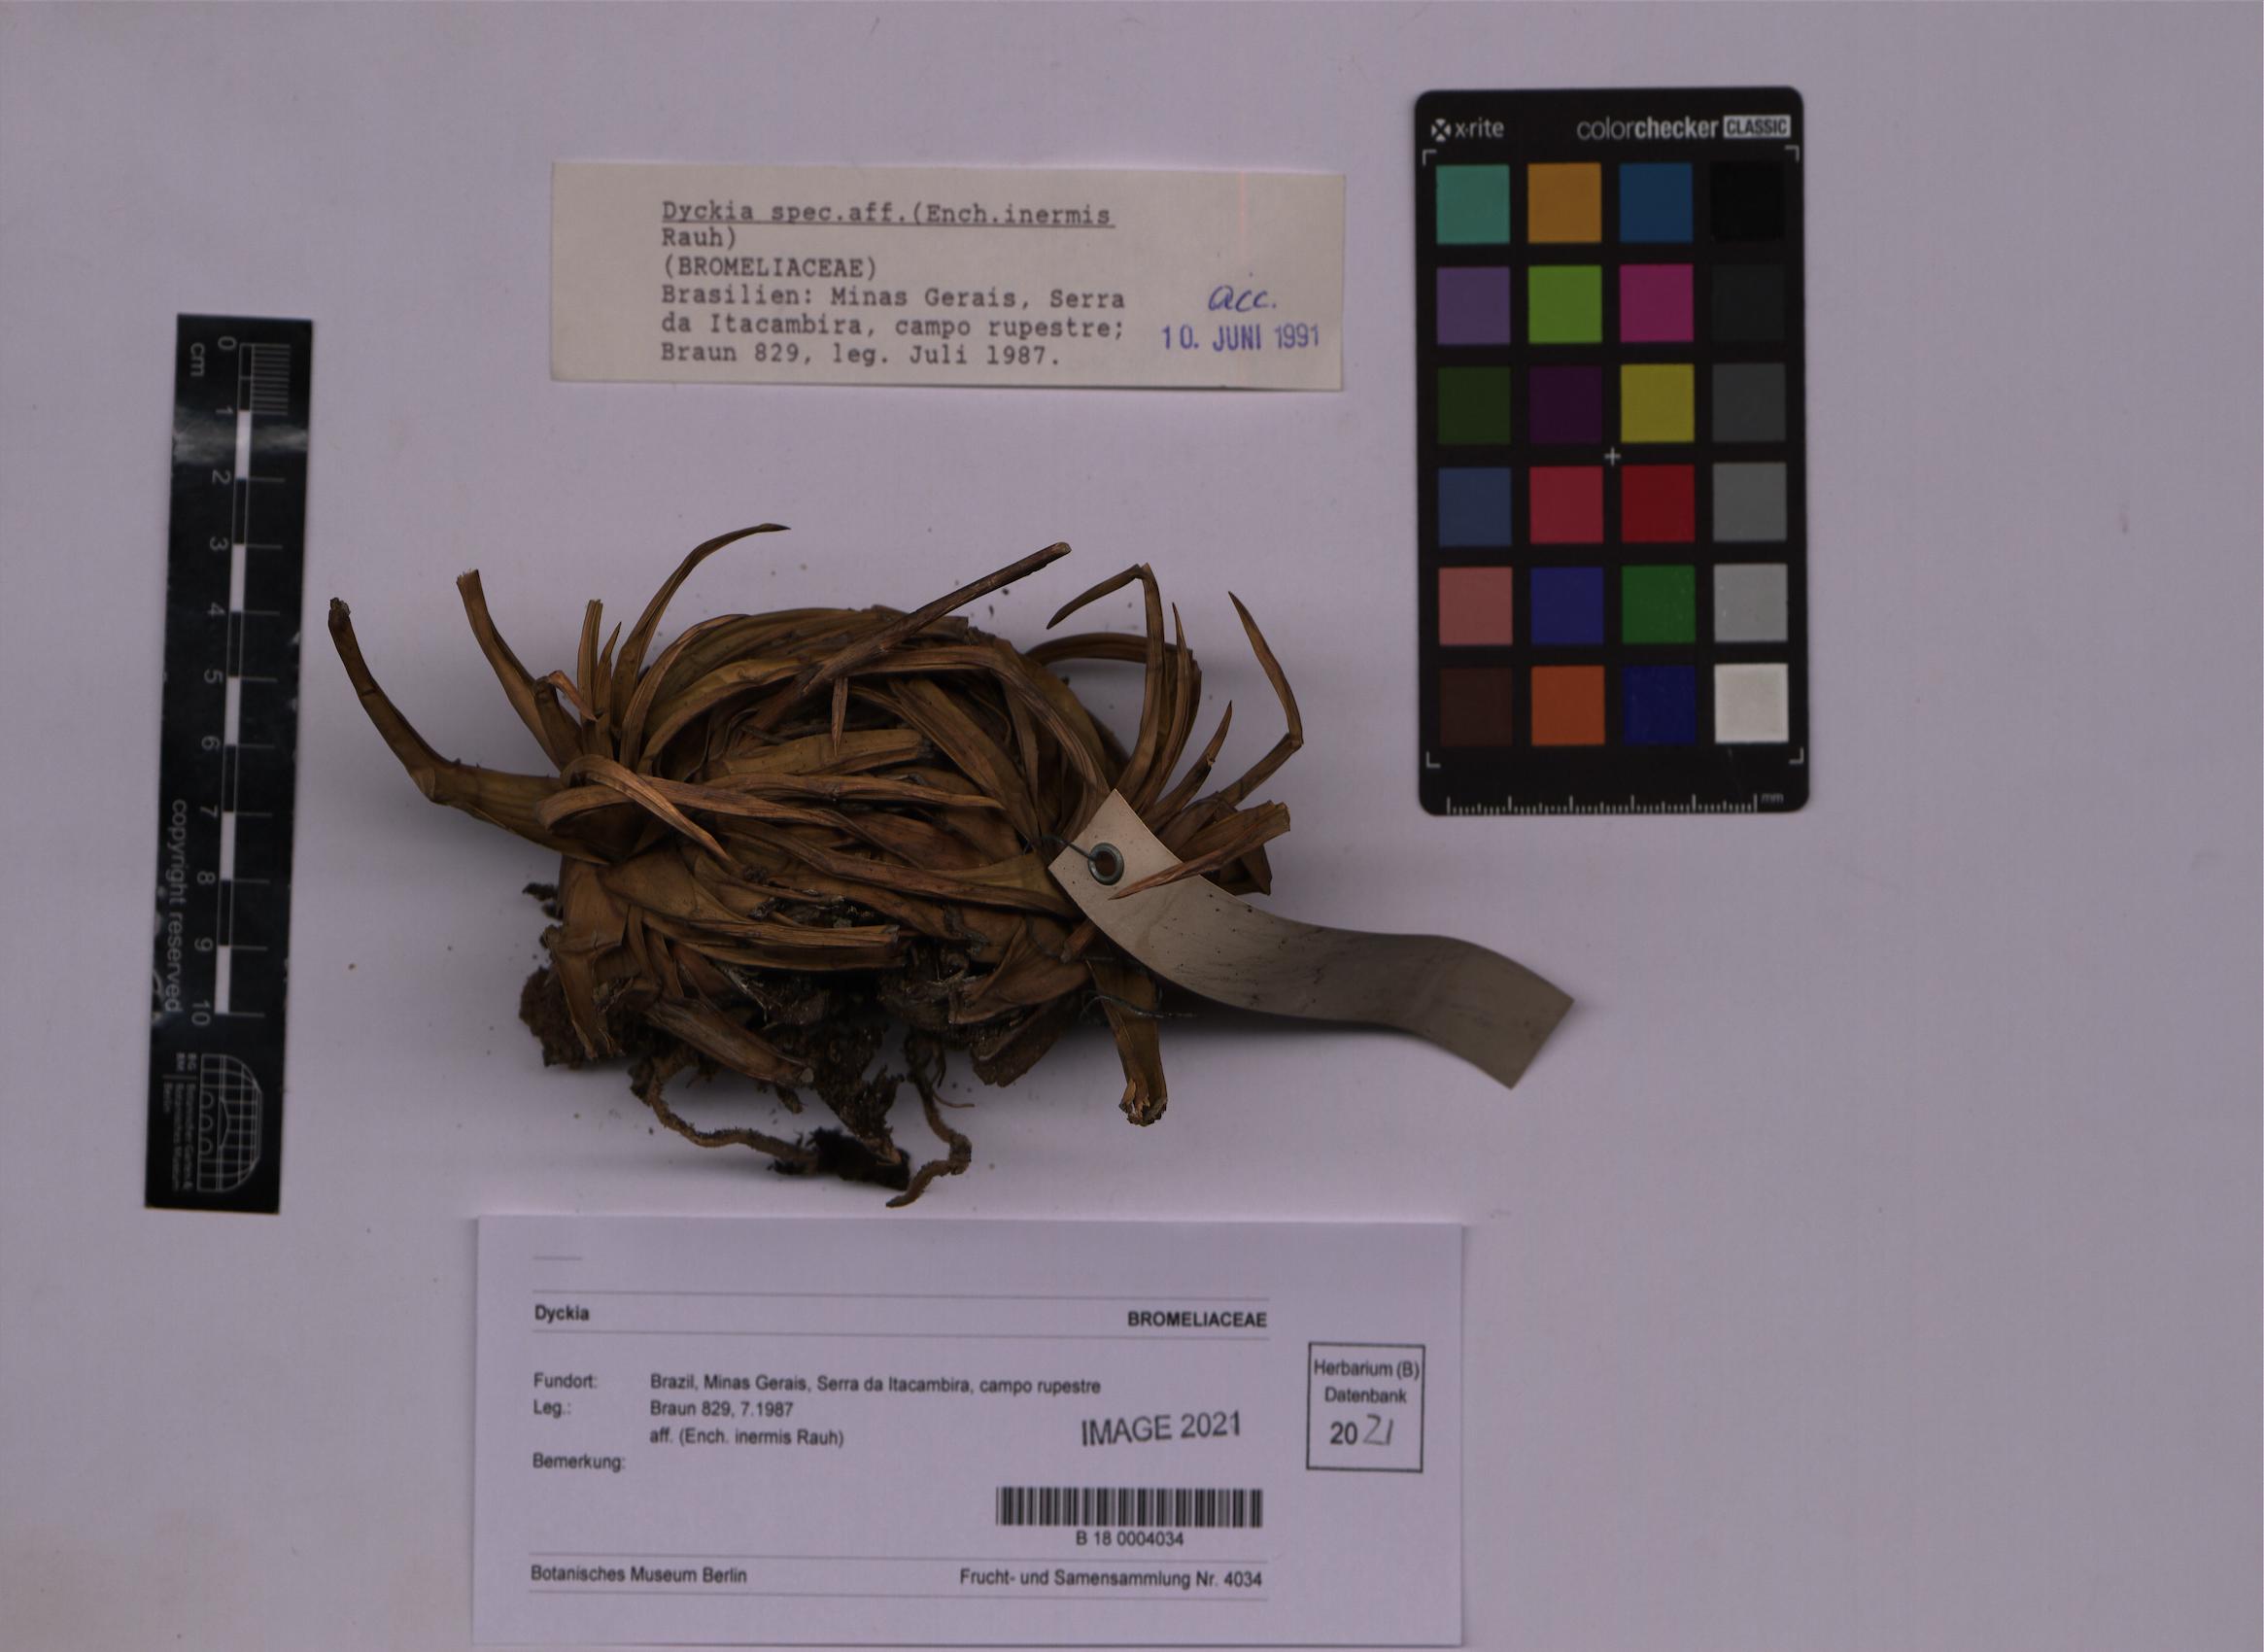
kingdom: Plantae
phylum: Tracheophyta
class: Liliopsida
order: Poales
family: Bromeliaceae
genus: Dyckia
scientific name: Dyckia
